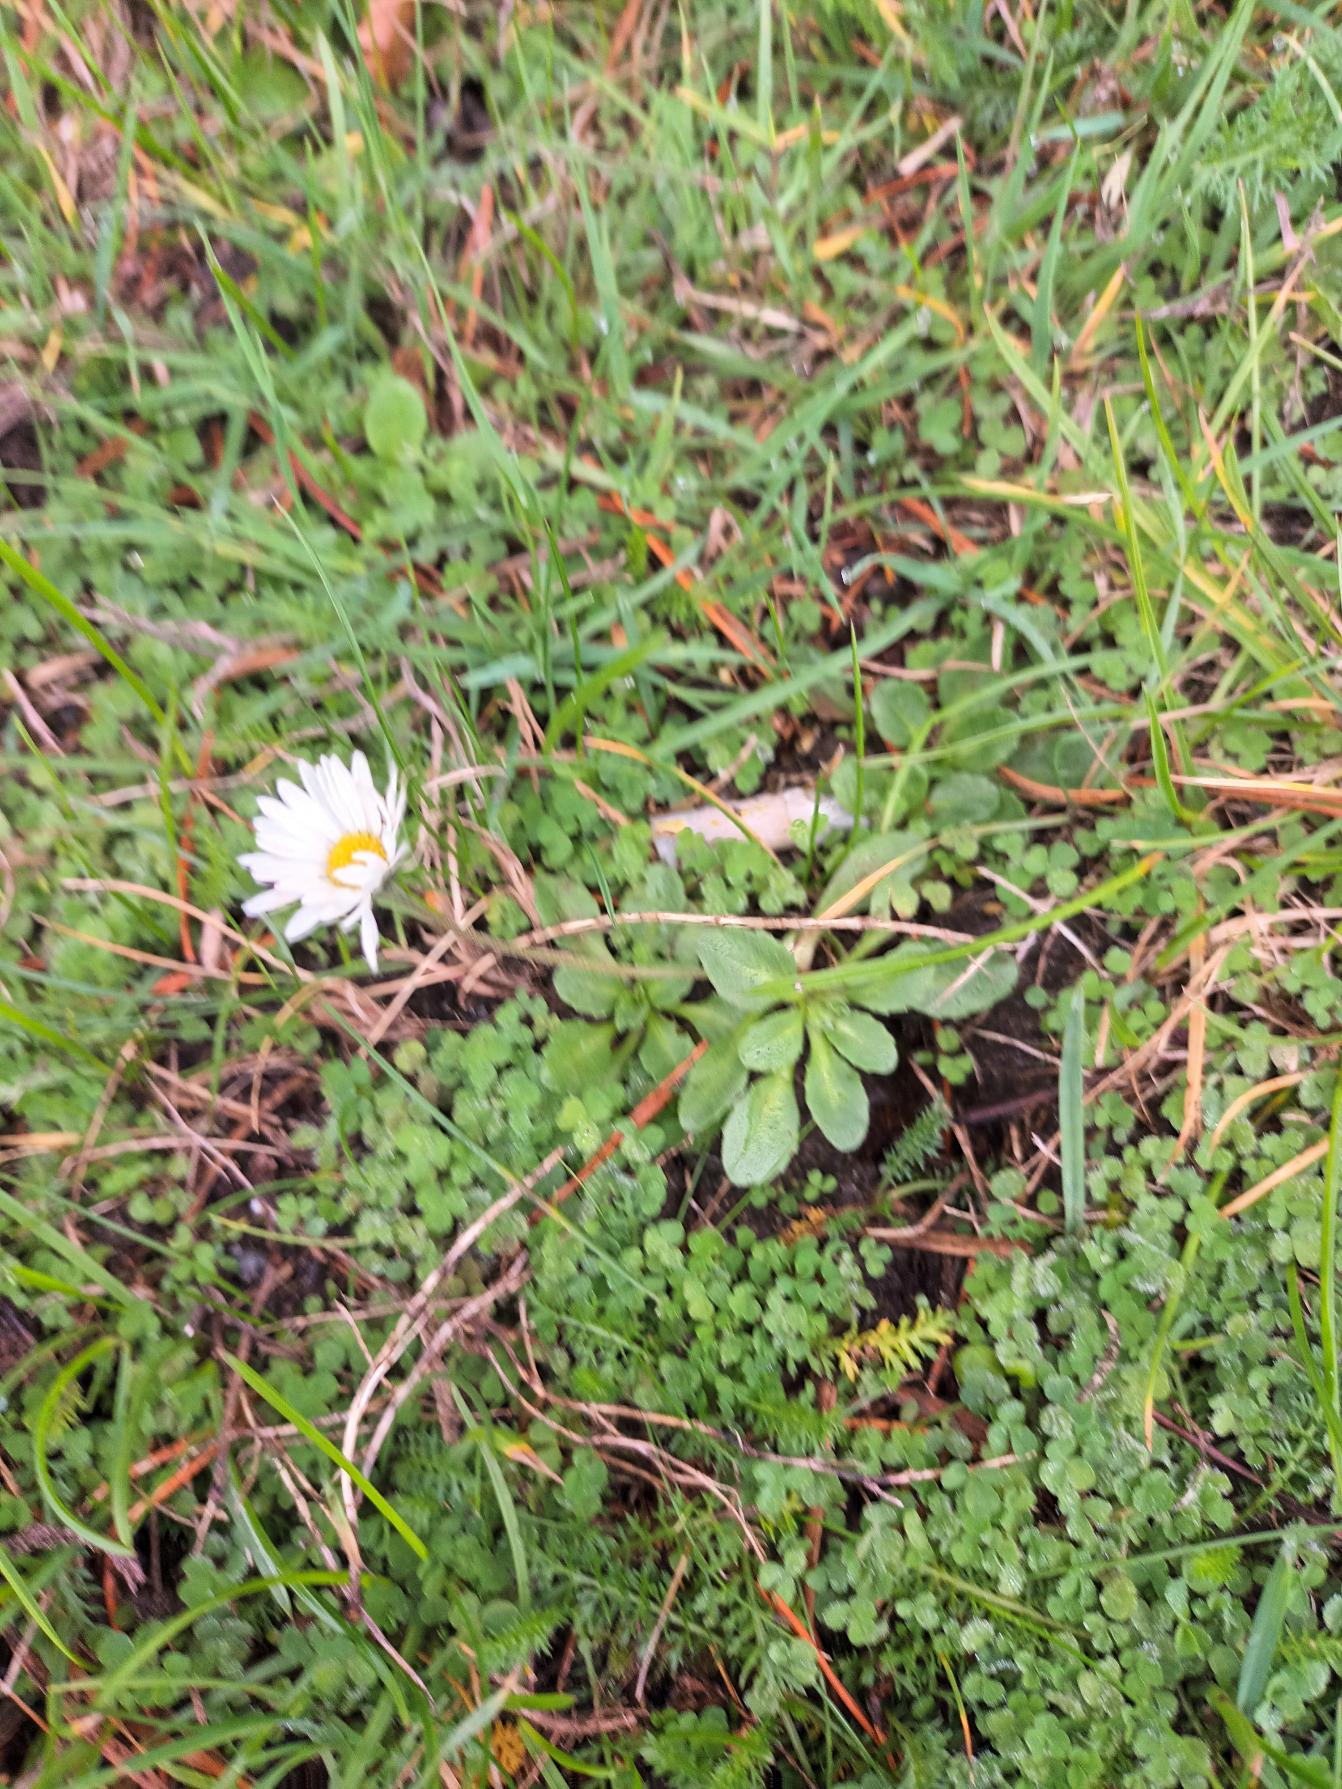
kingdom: Plantae
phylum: Tracheophyta
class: Magnoliopsida
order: Asterales
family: Asteraceae
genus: Bellis
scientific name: Bellis perennis
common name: Tusindfryd
